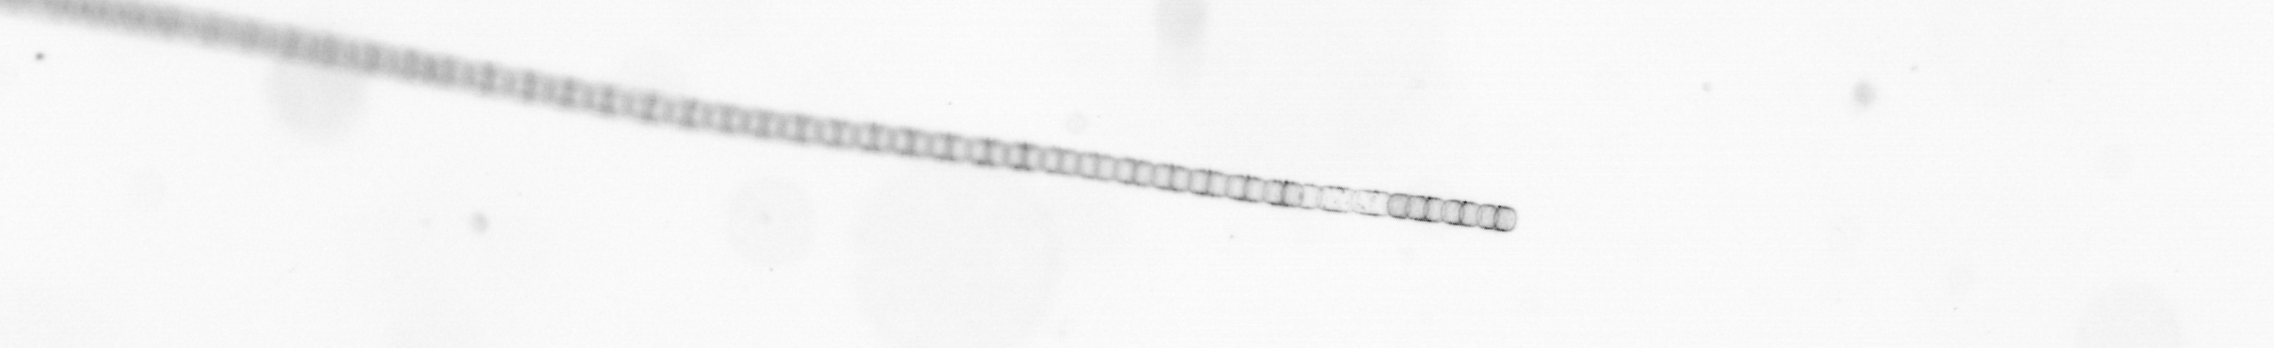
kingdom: Chromista
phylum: Ochrophyta
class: Bacillariophyceae
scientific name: Bacillariophyceae
